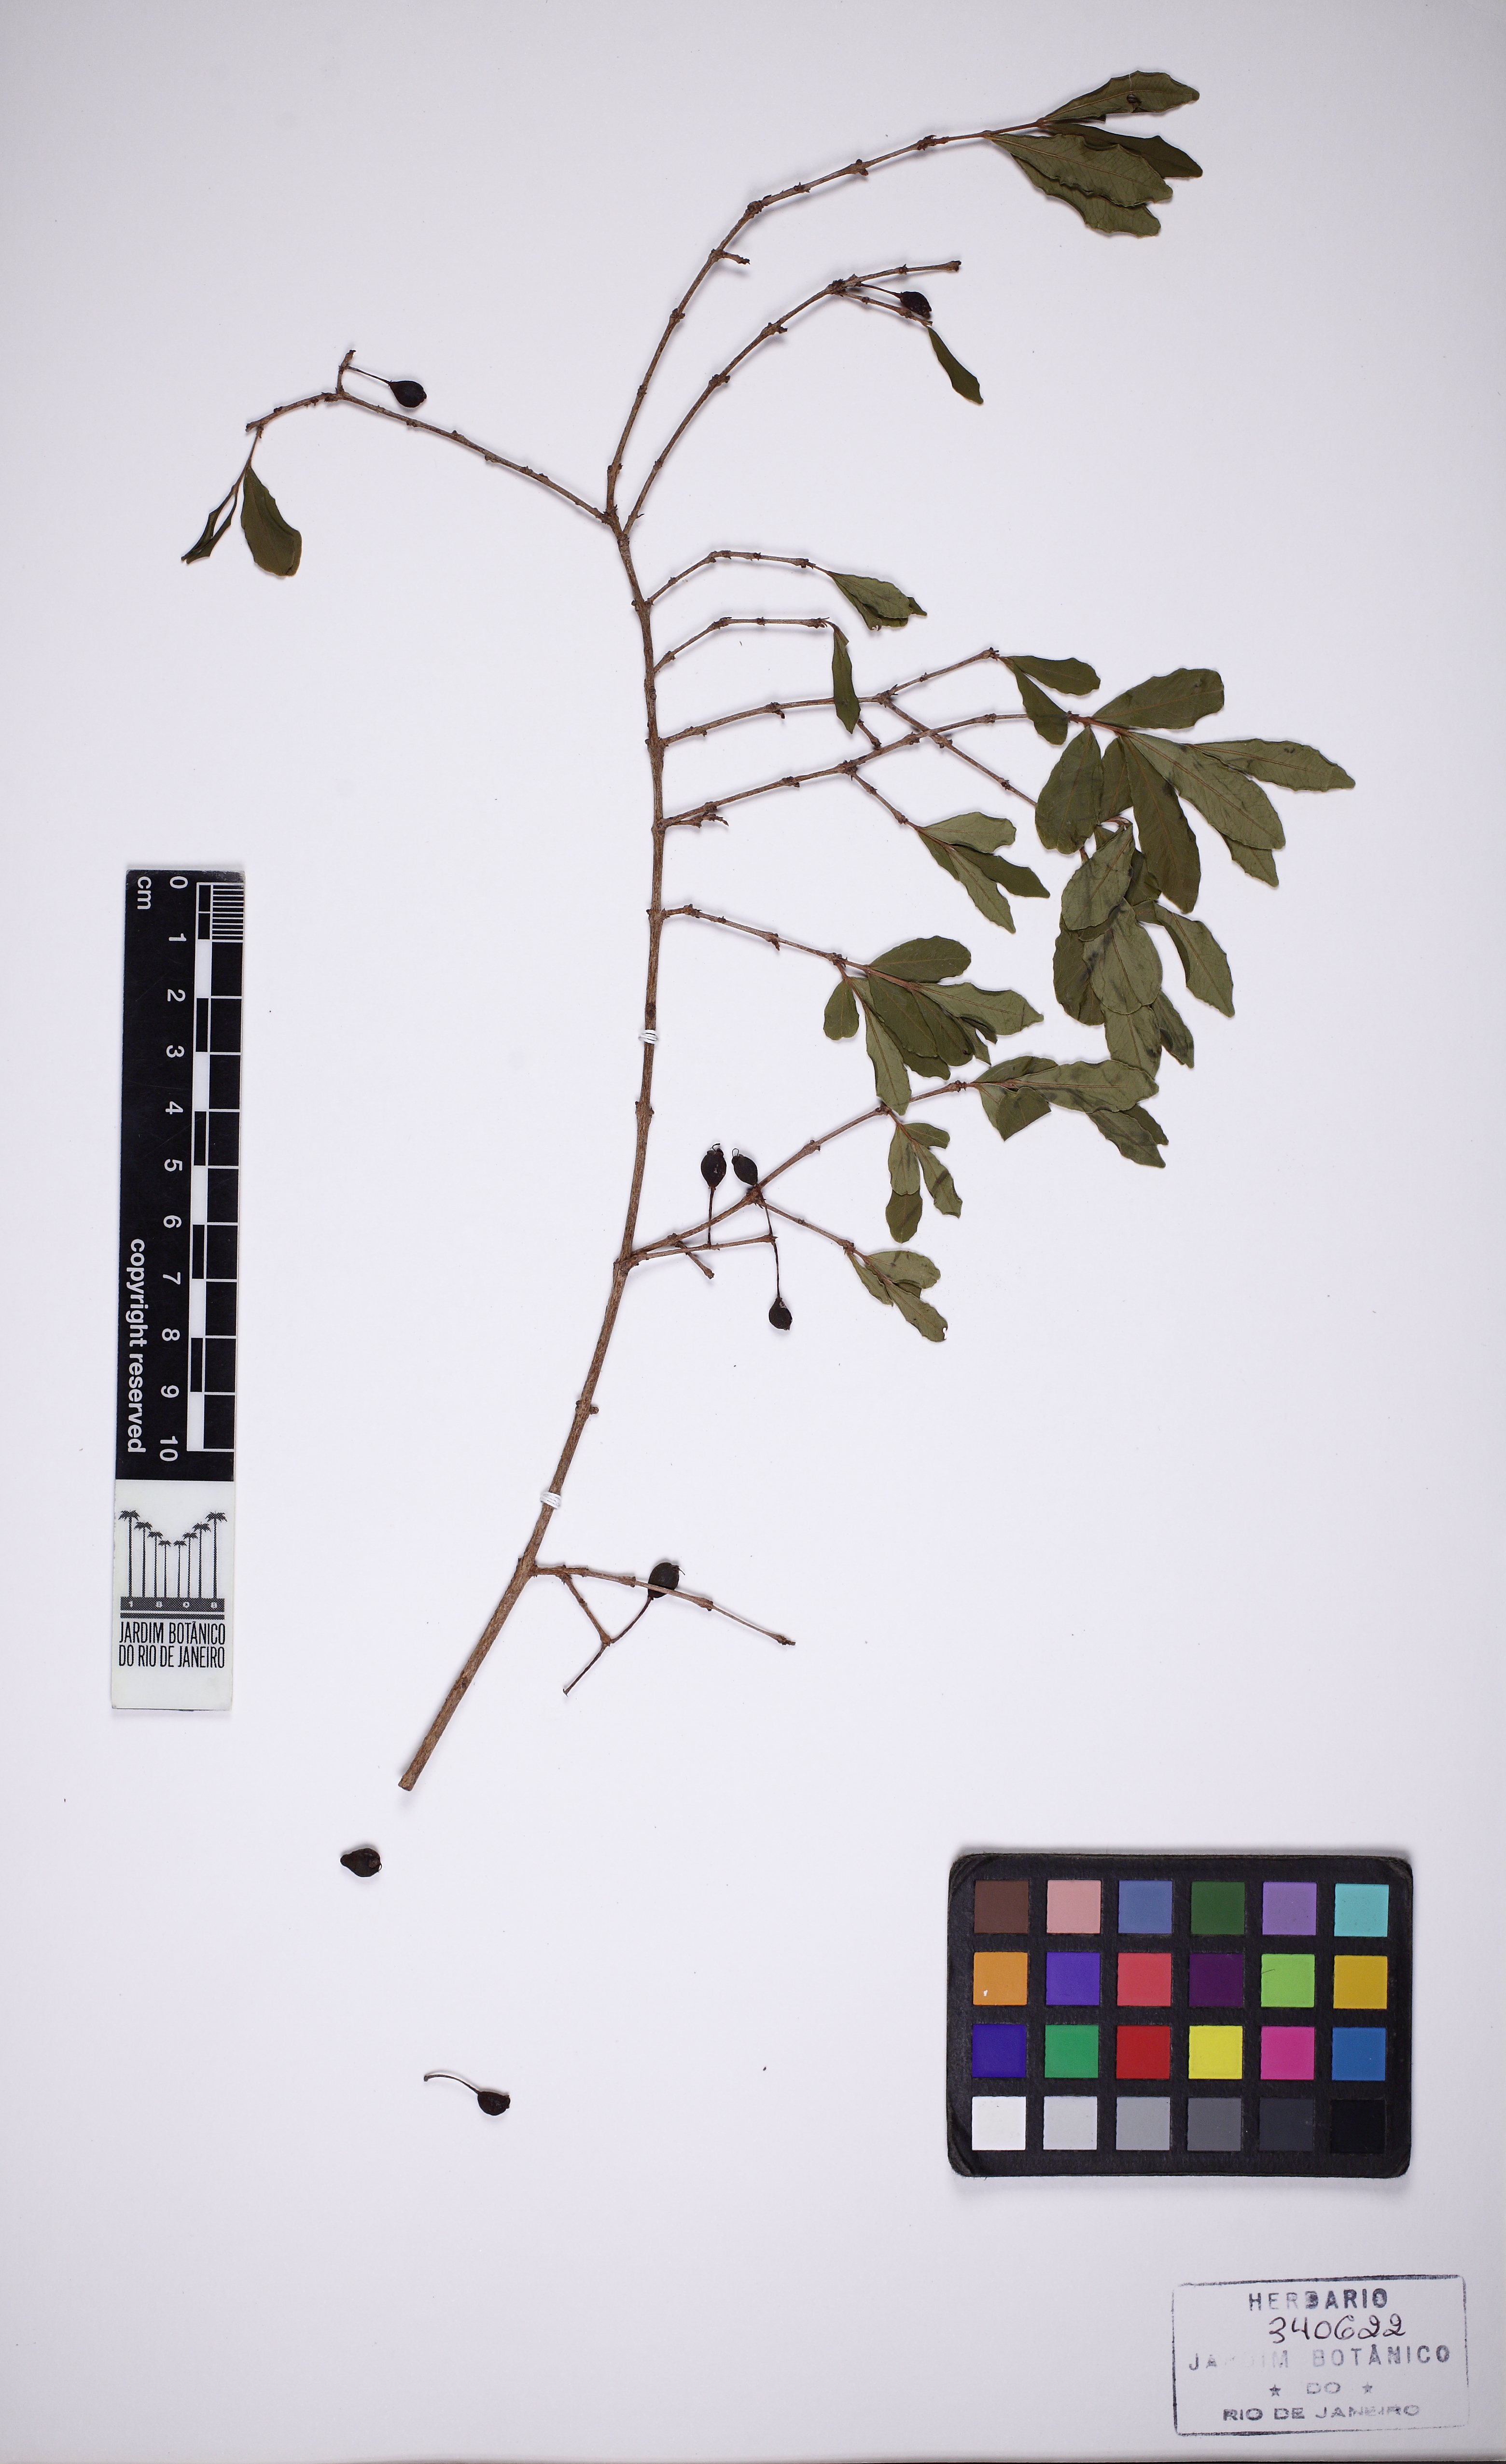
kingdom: Plantae
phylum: Tracheophyta
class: Magnoliopsida
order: Myrtales
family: Myrtaceae
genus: Eugenia
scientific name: Eugenia aurata
